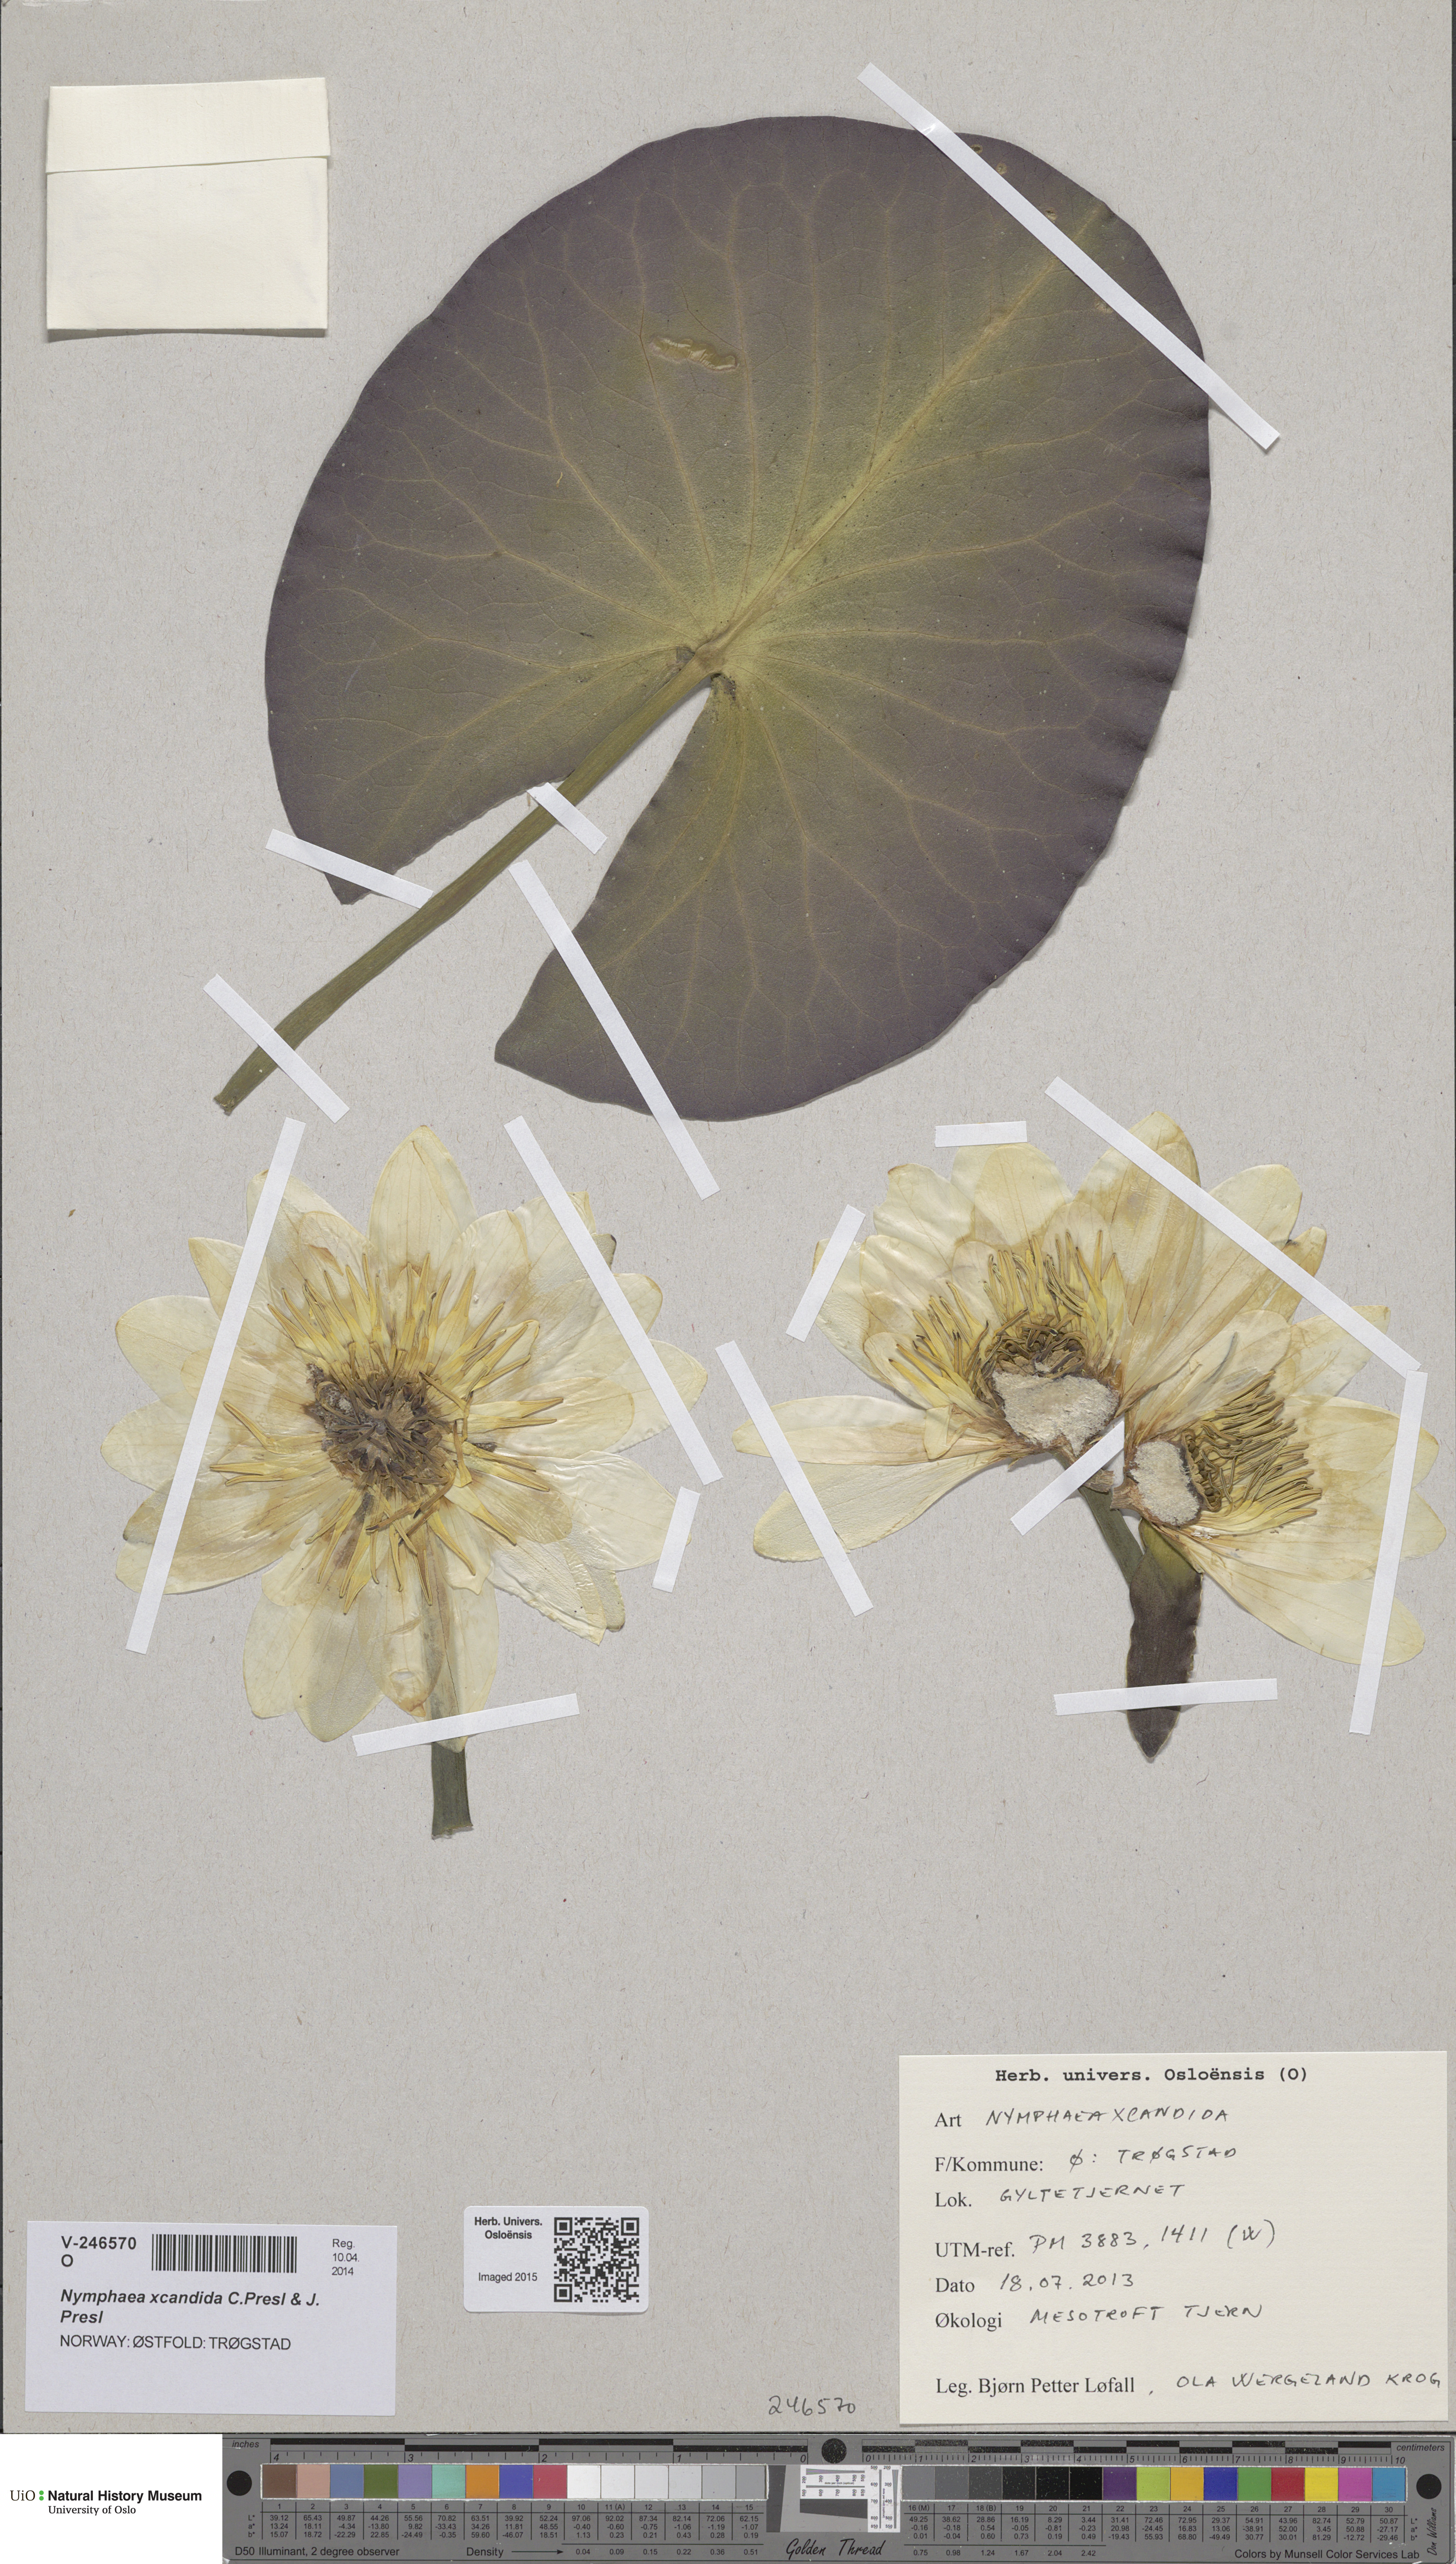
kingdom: Plantae
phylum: Tracheophyta
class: Magnoliopsida
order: Nymphaeales
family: Nymphaeaceae
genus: Nymphaea
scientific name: Nymphaea candida
